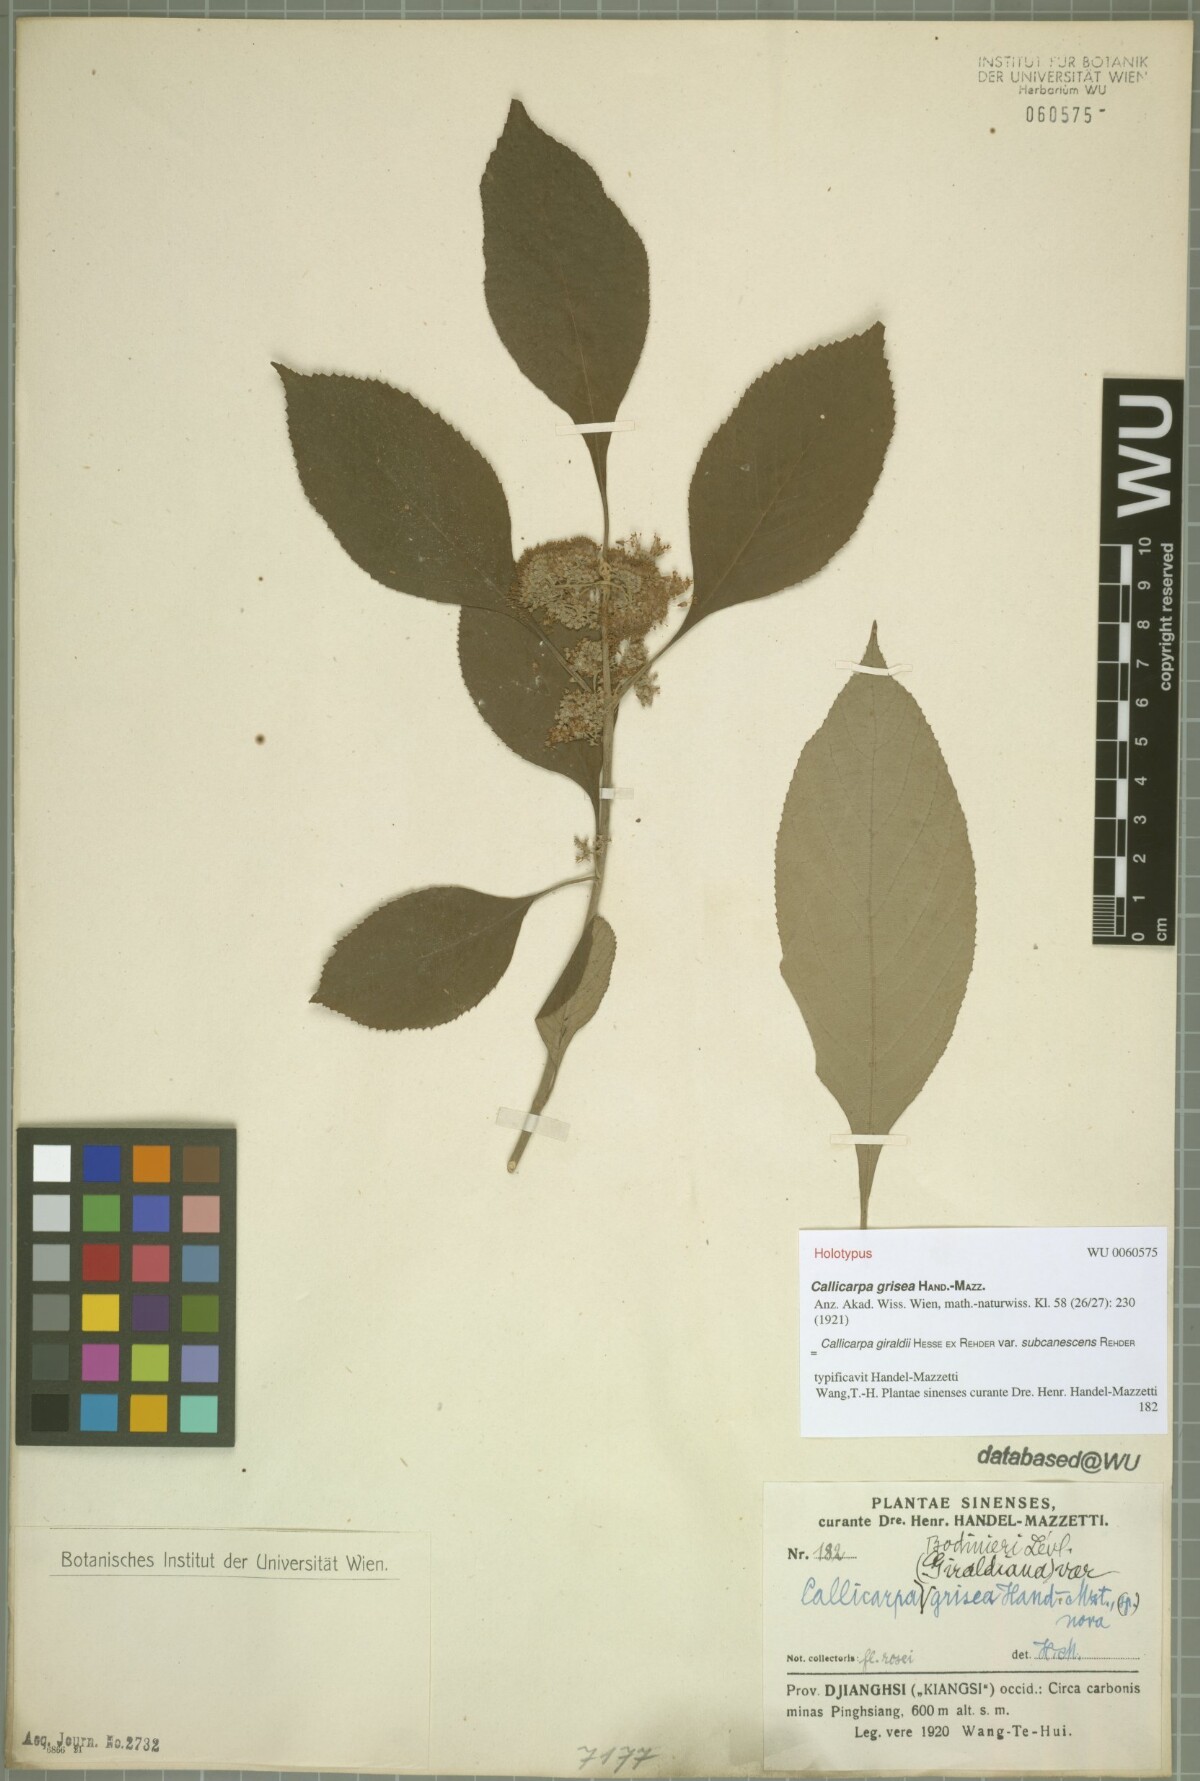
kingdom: Plantae
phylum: Tracheophyta
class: Magnoliopsida
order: Lamiales
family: Lamiaceae
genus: Callicarpa
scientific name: Callicarpa giraldii
